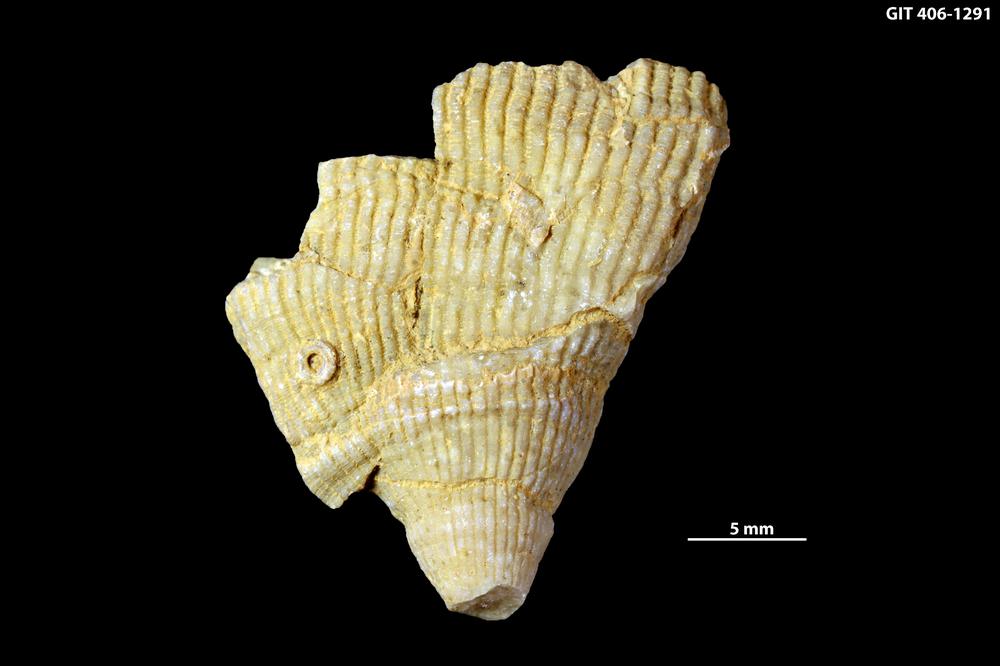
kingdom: Animalia
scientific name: Animalia
